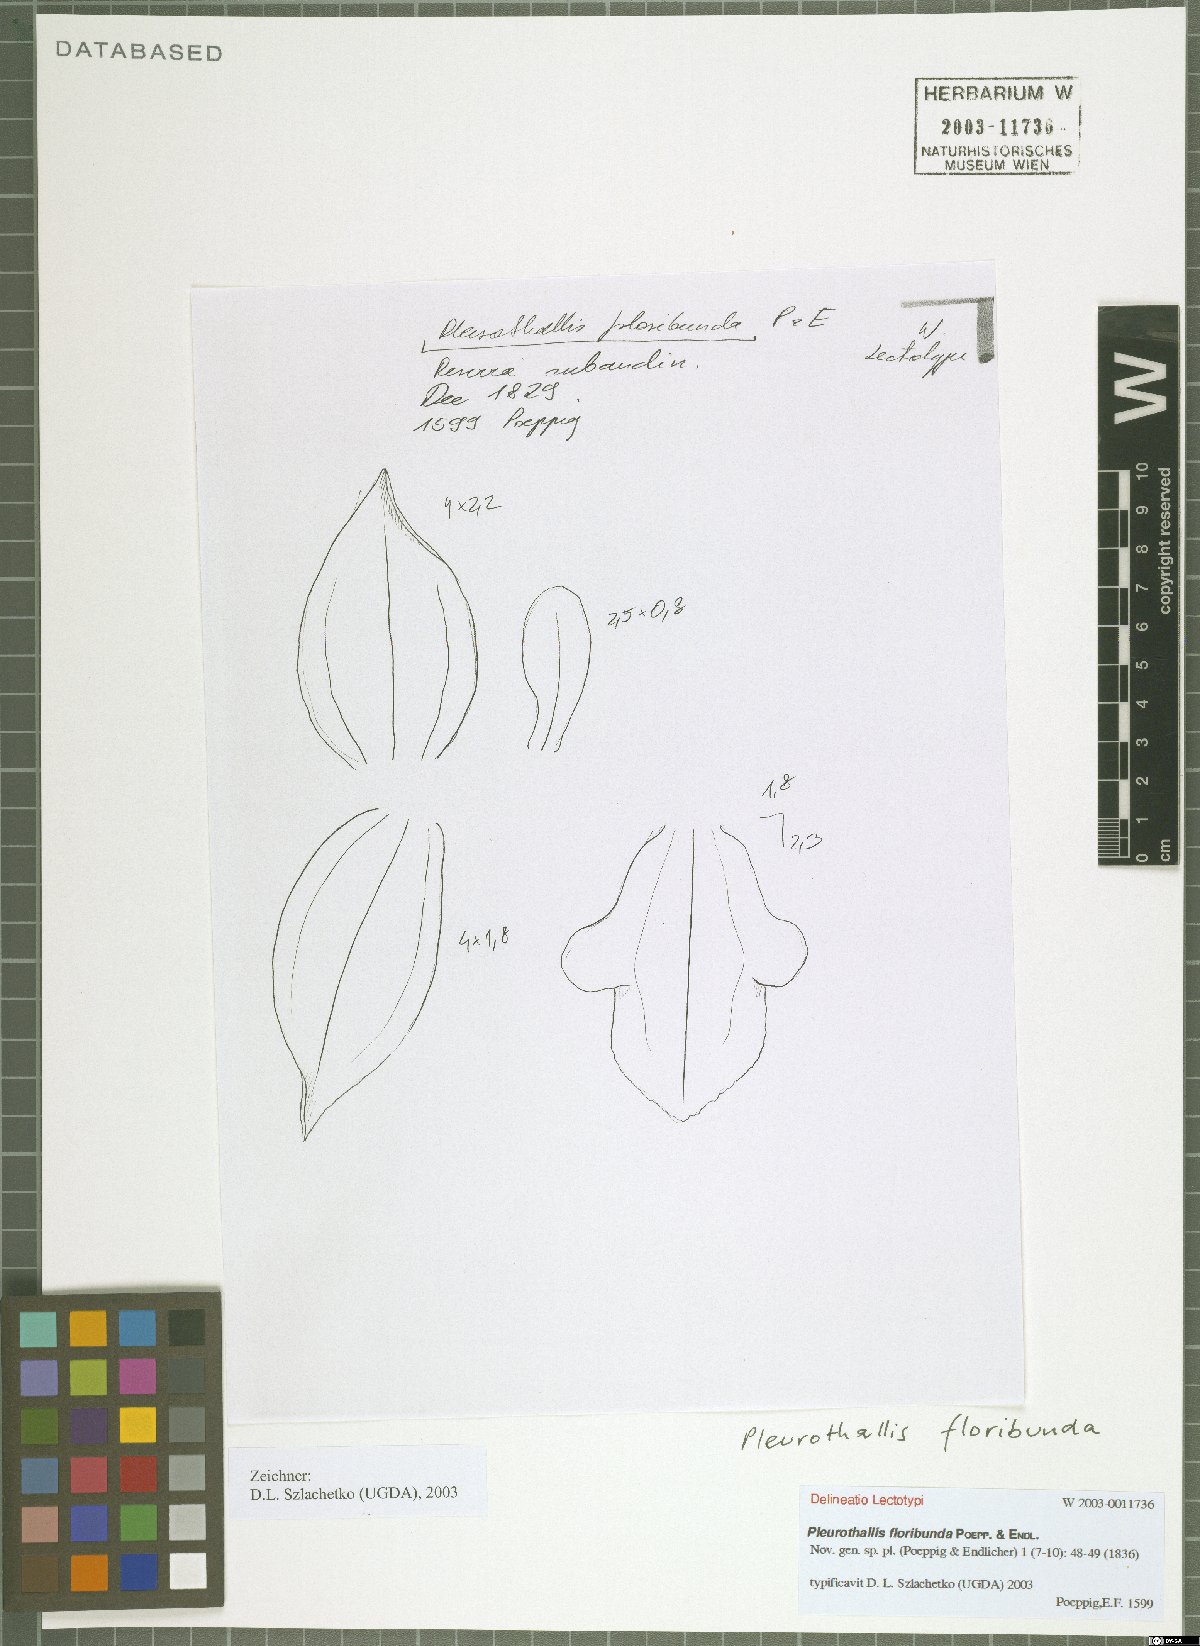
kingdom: Plantae
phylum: Tracheophyta
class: Liliopsida
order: Asparagales
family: Orchidaceae
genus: Stelis
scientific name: Stelis pittieri
